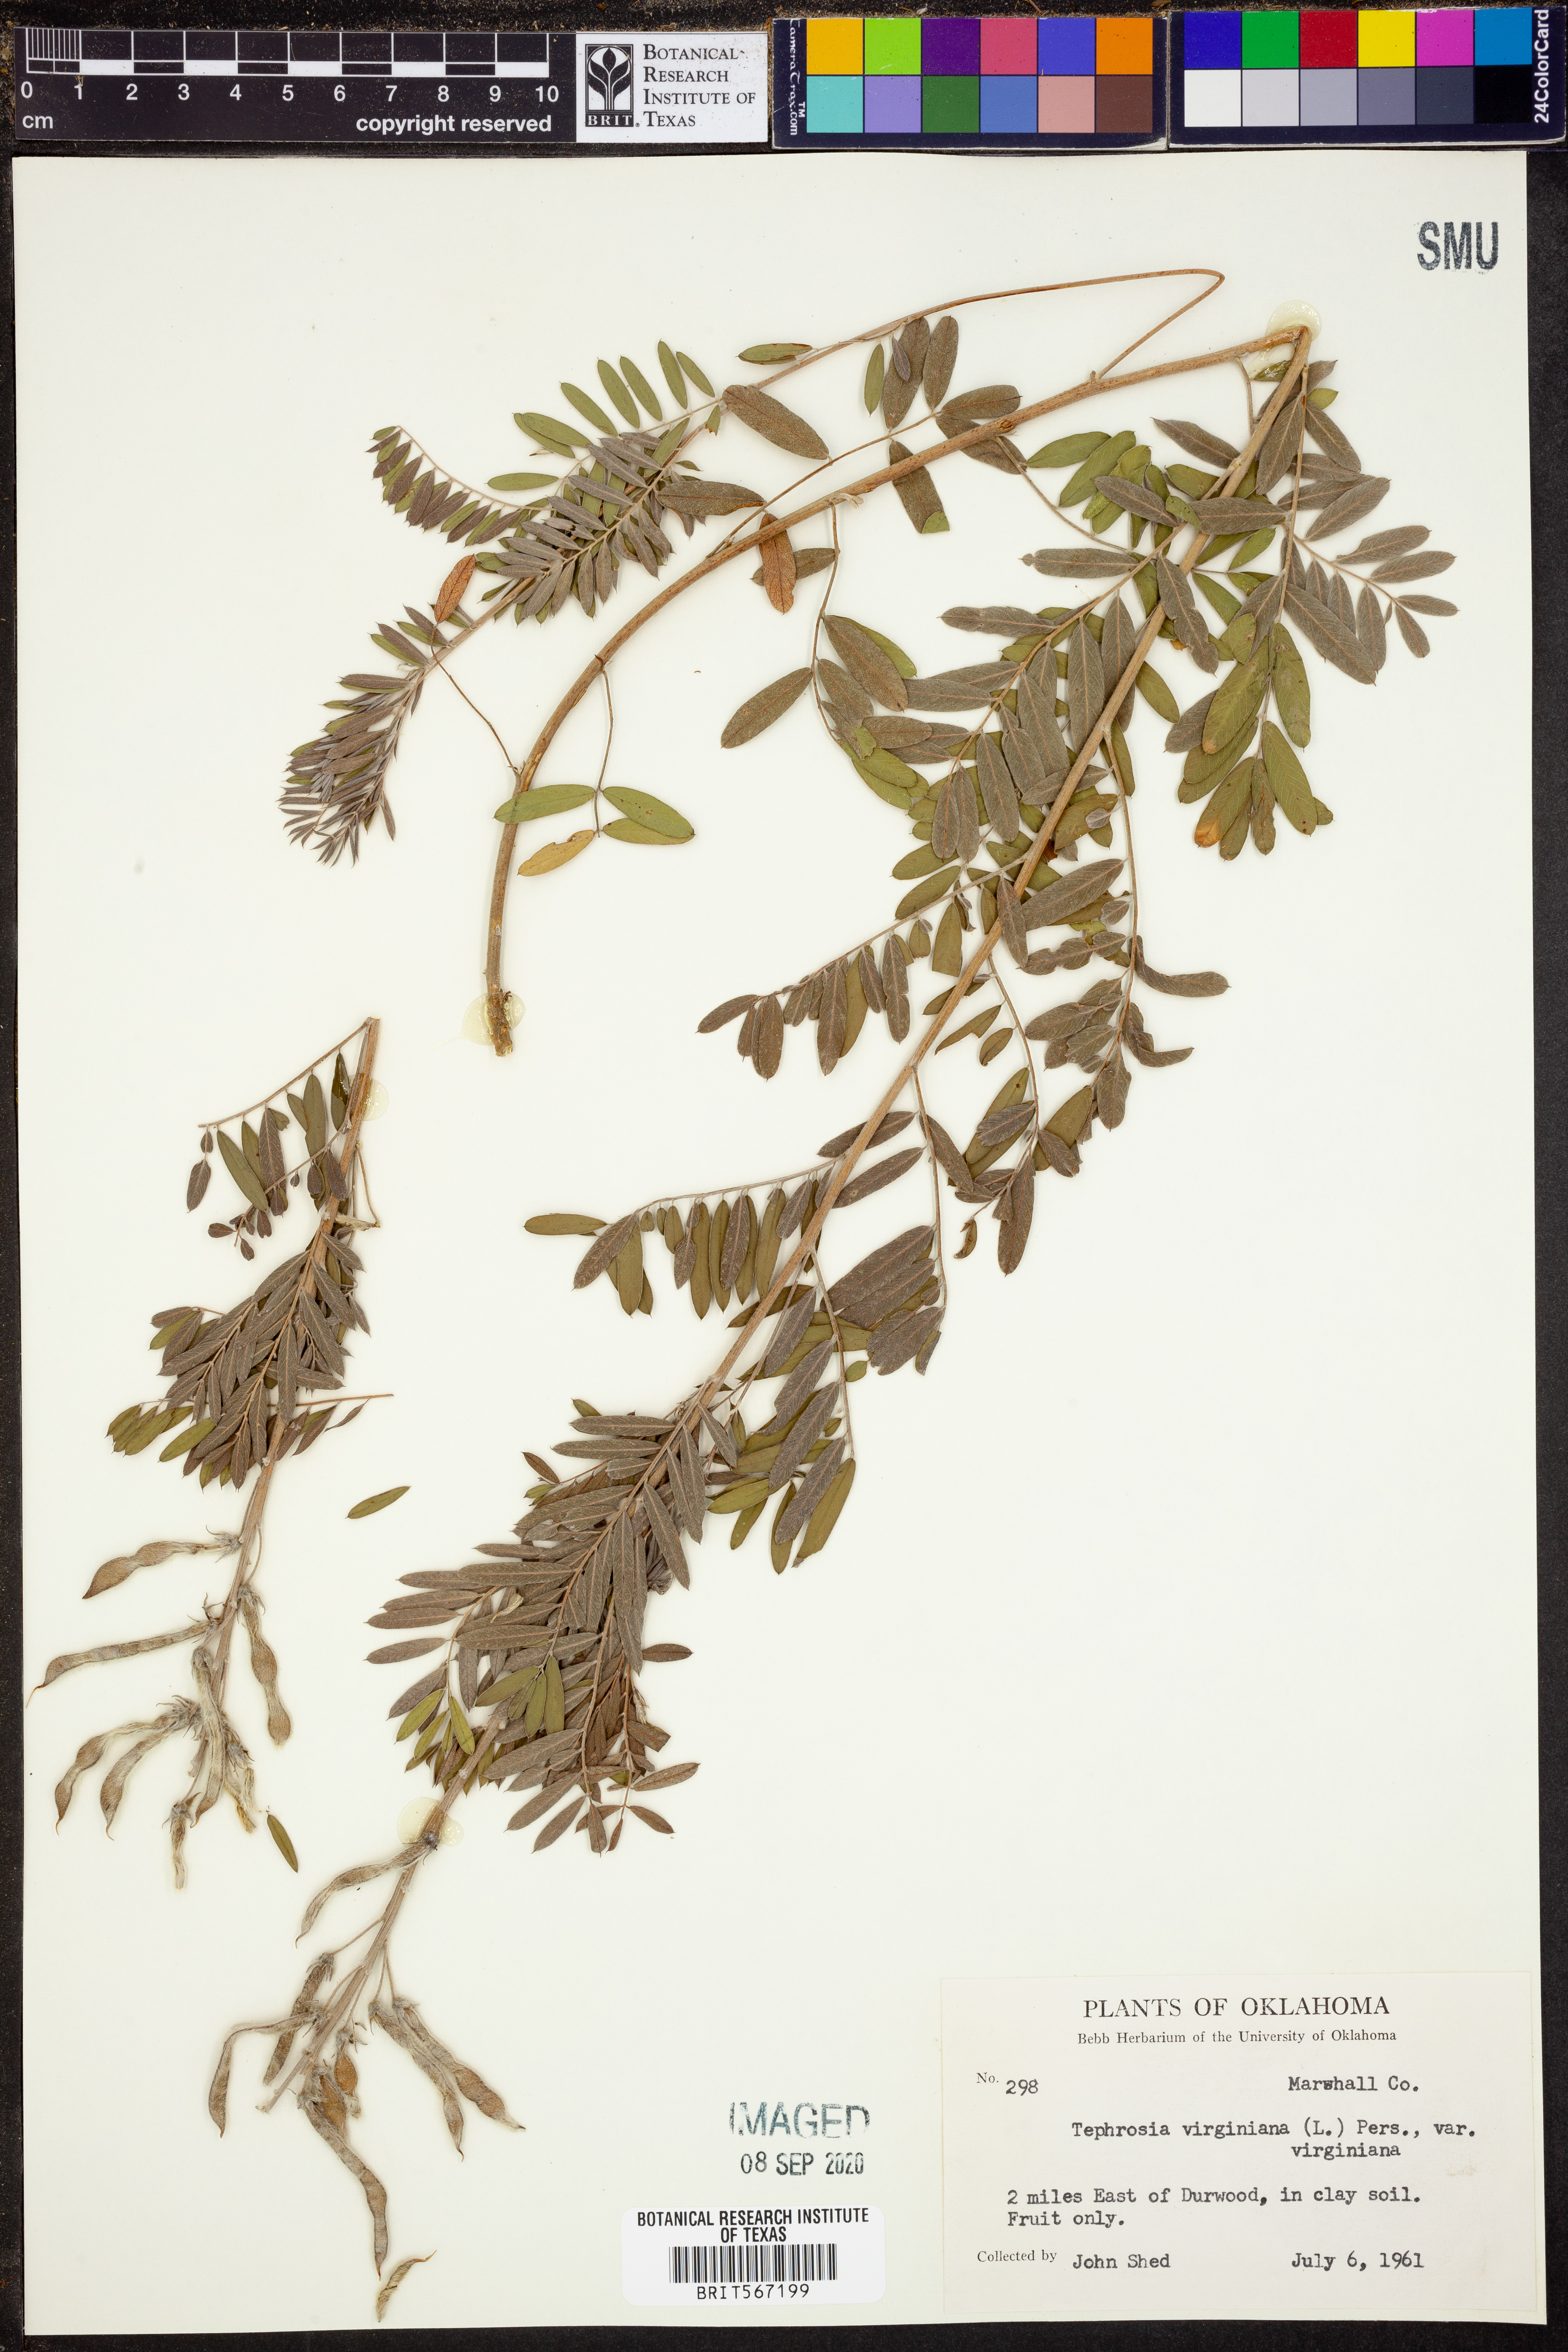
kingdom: Plantae
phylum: Tracheophyta
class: Magnoliopsida
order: Fabales
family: Fabaceae
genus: Tephrosia
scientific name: Tephrosia virginiana
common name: Rabbit-pea
